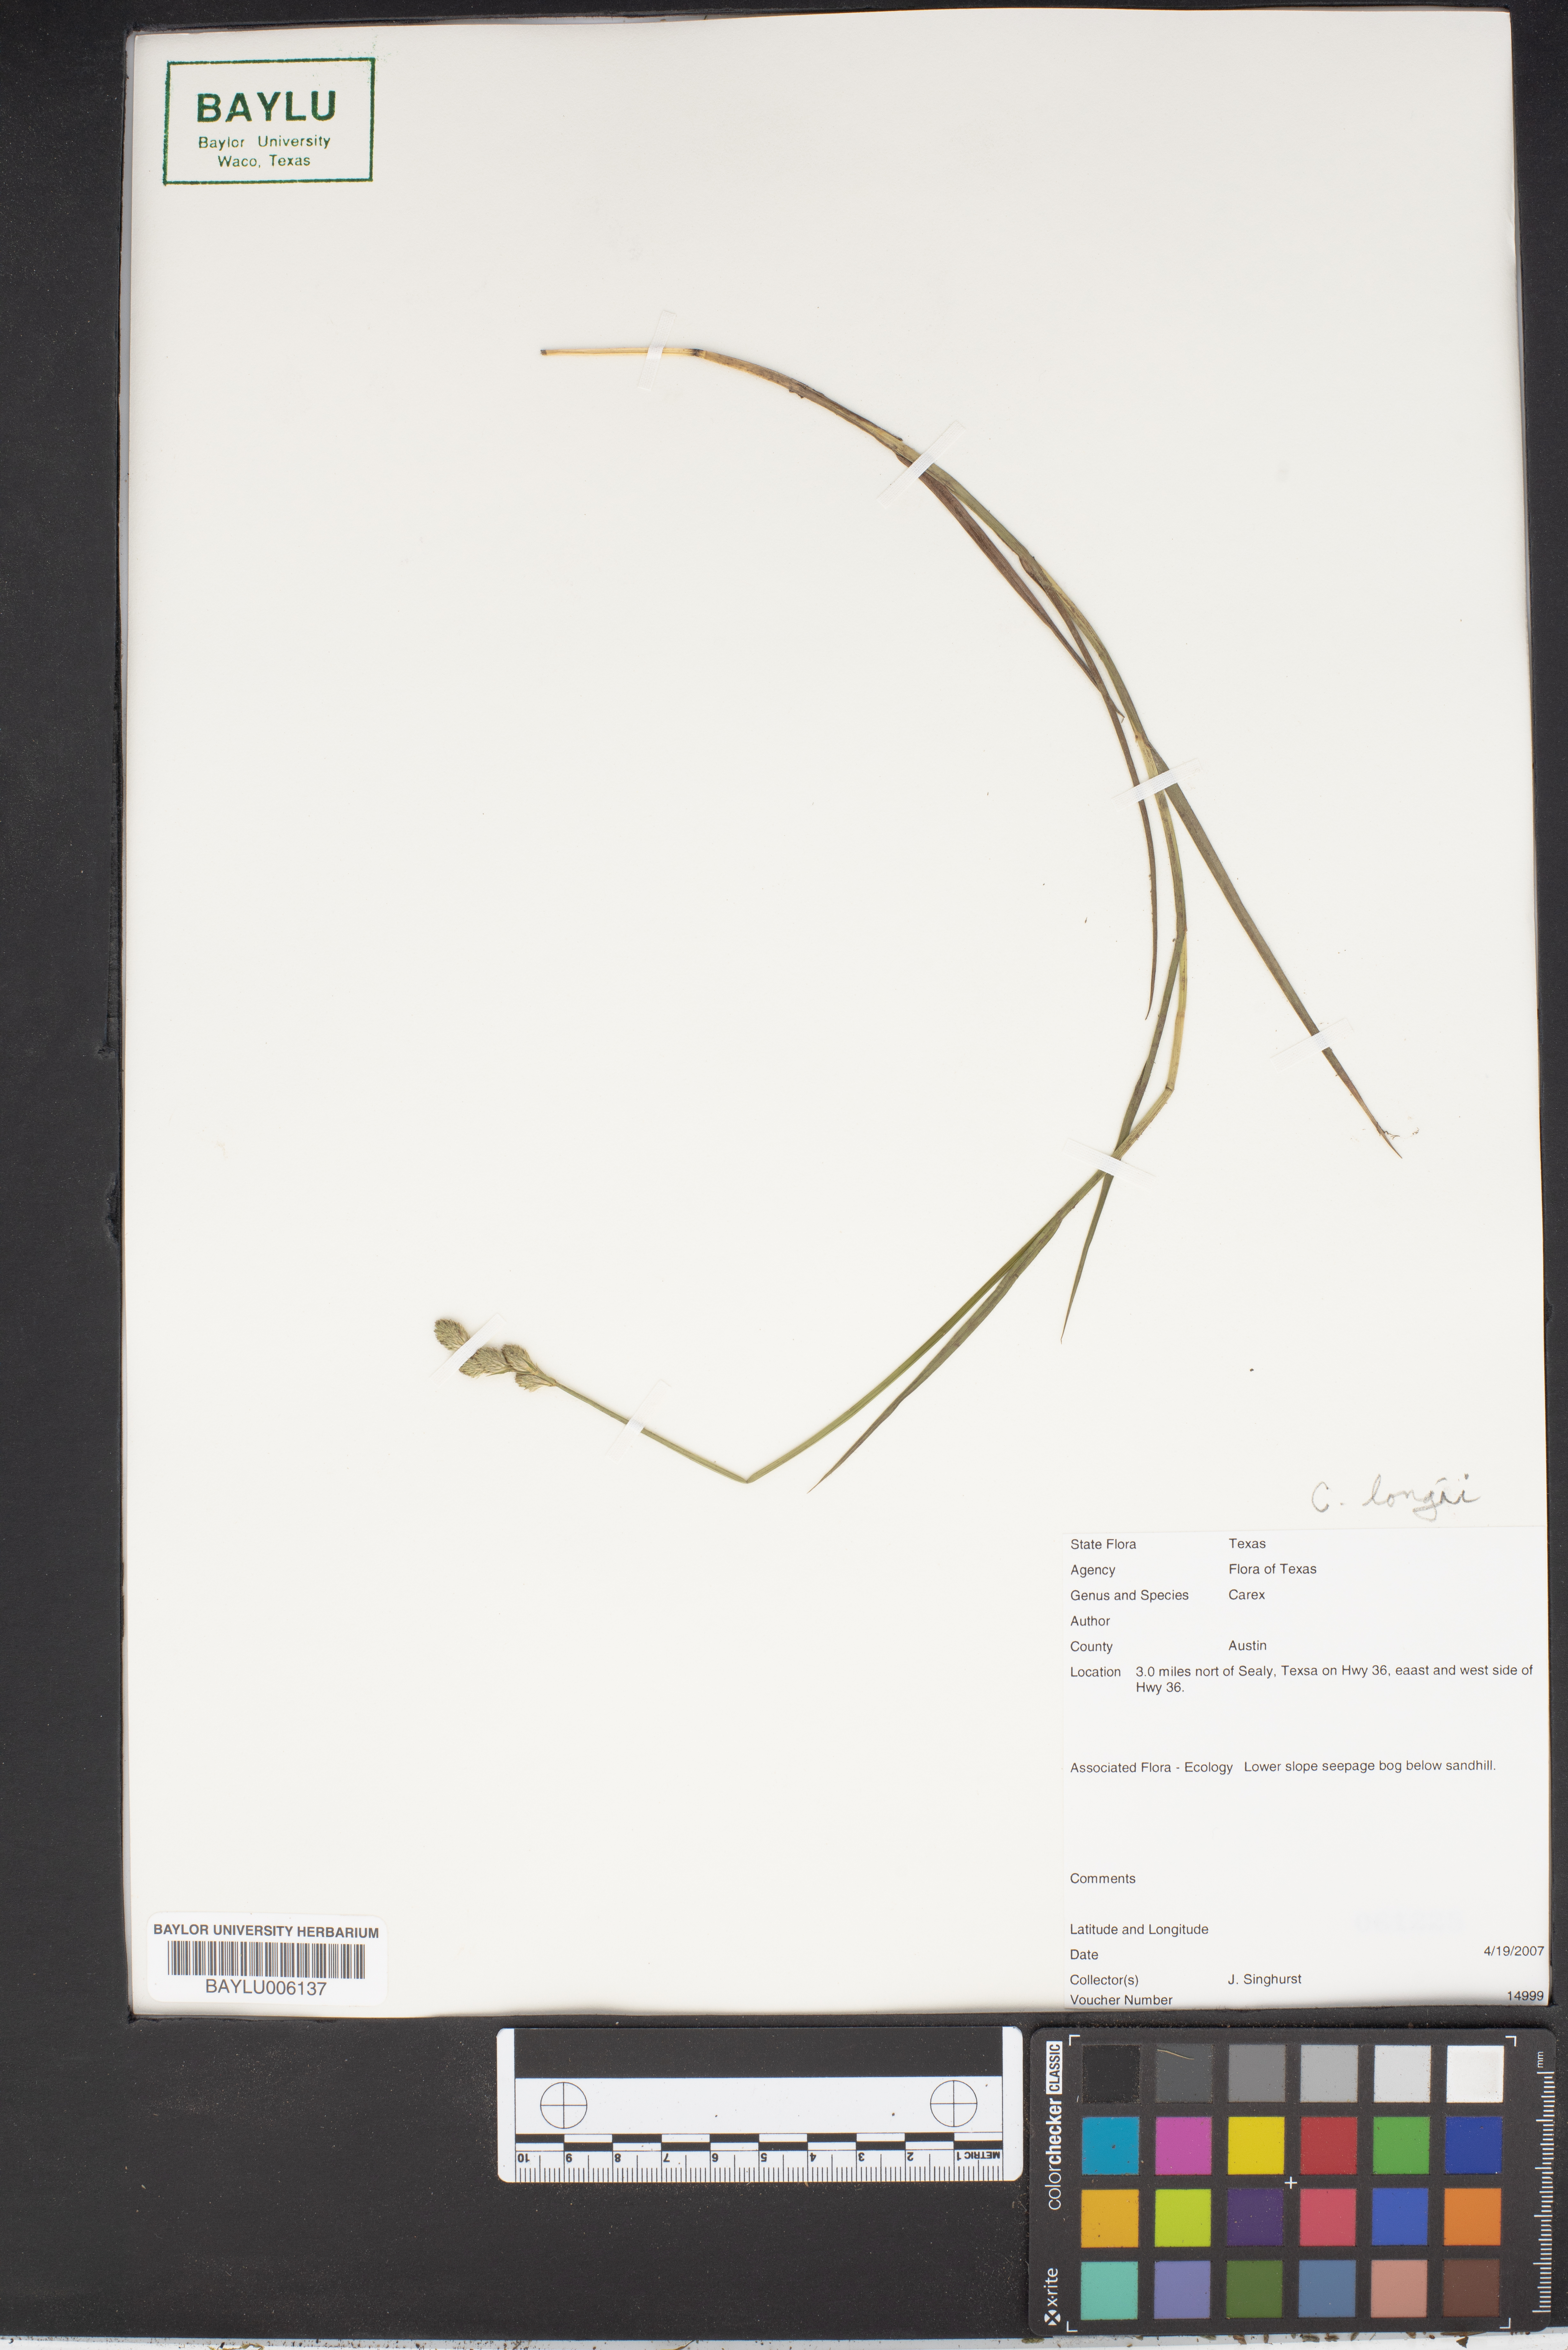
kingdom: Plantae
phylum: Tracheophyta
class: Liliopsida
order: Poales
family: Cyperaceae
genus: Carex
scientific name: Carex longii
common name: Long's sedge
